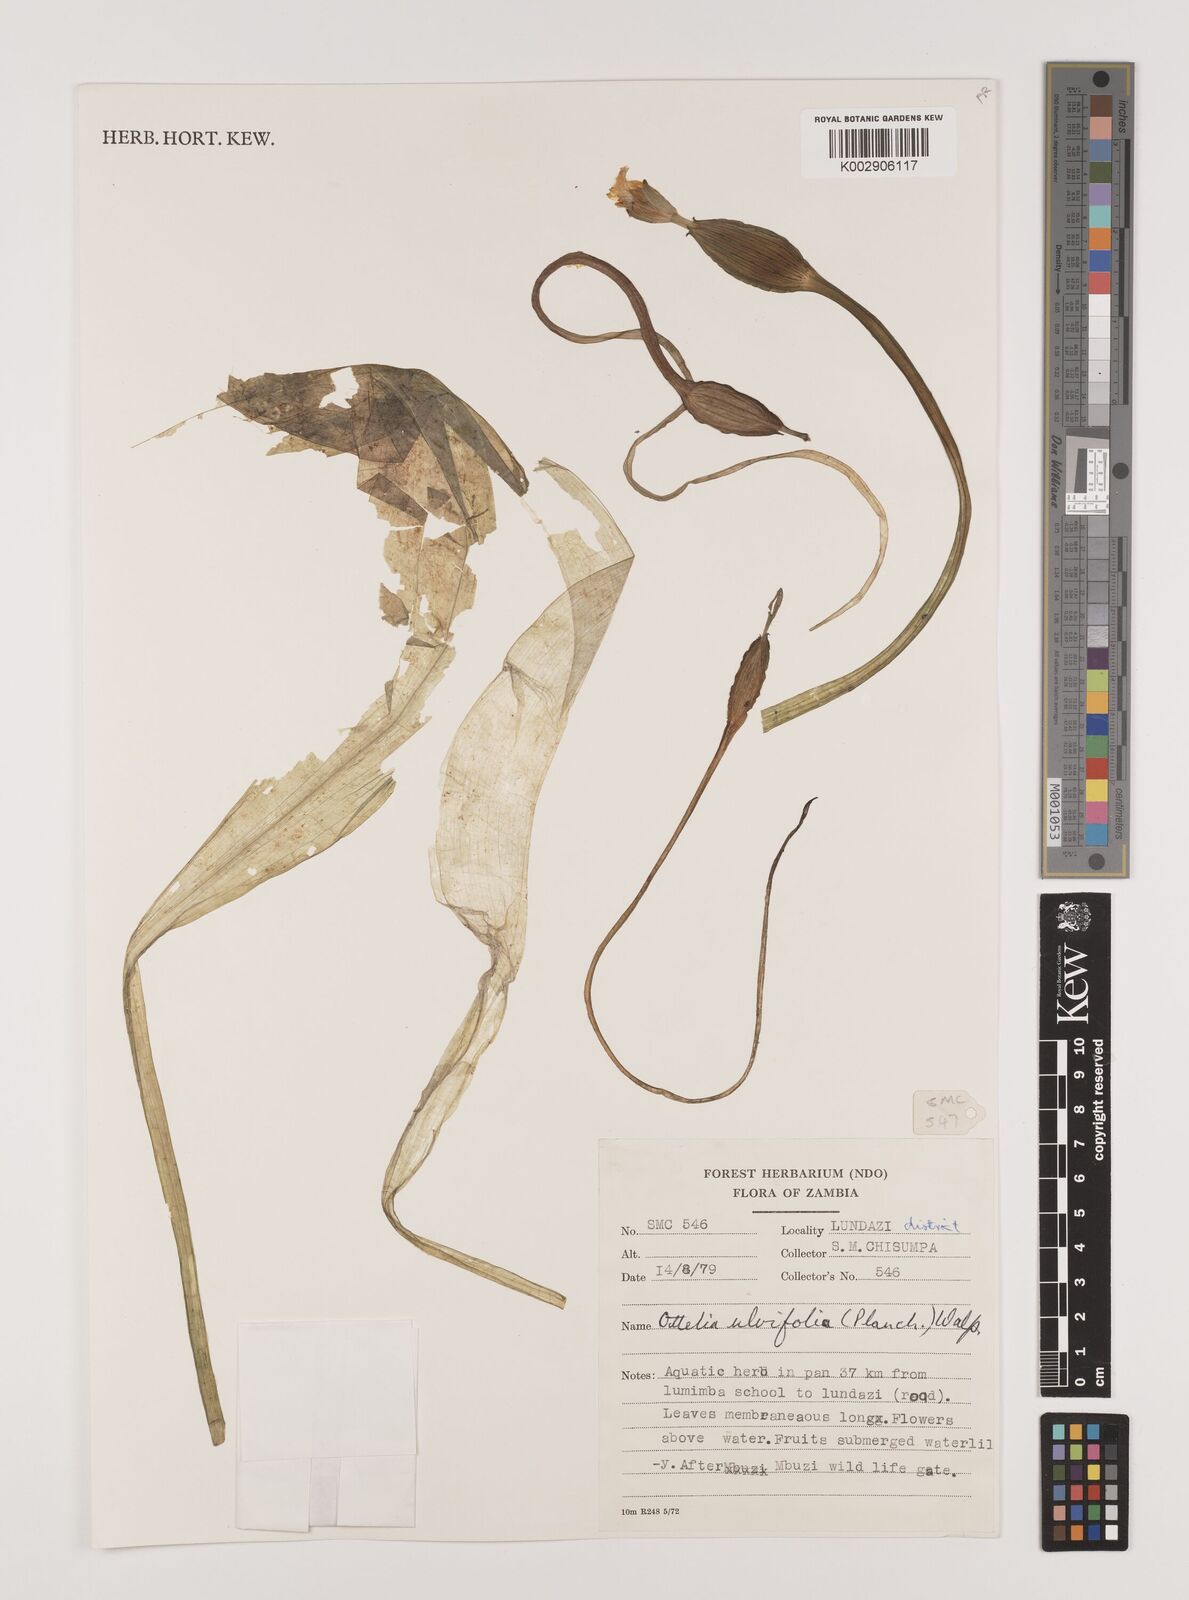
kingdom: Plantae
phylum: Tracheophyta
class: Liliopsida
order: Alismatales
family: Hydrocharitaceae
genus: Ottelia
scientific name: Ottelia ulvifolia
